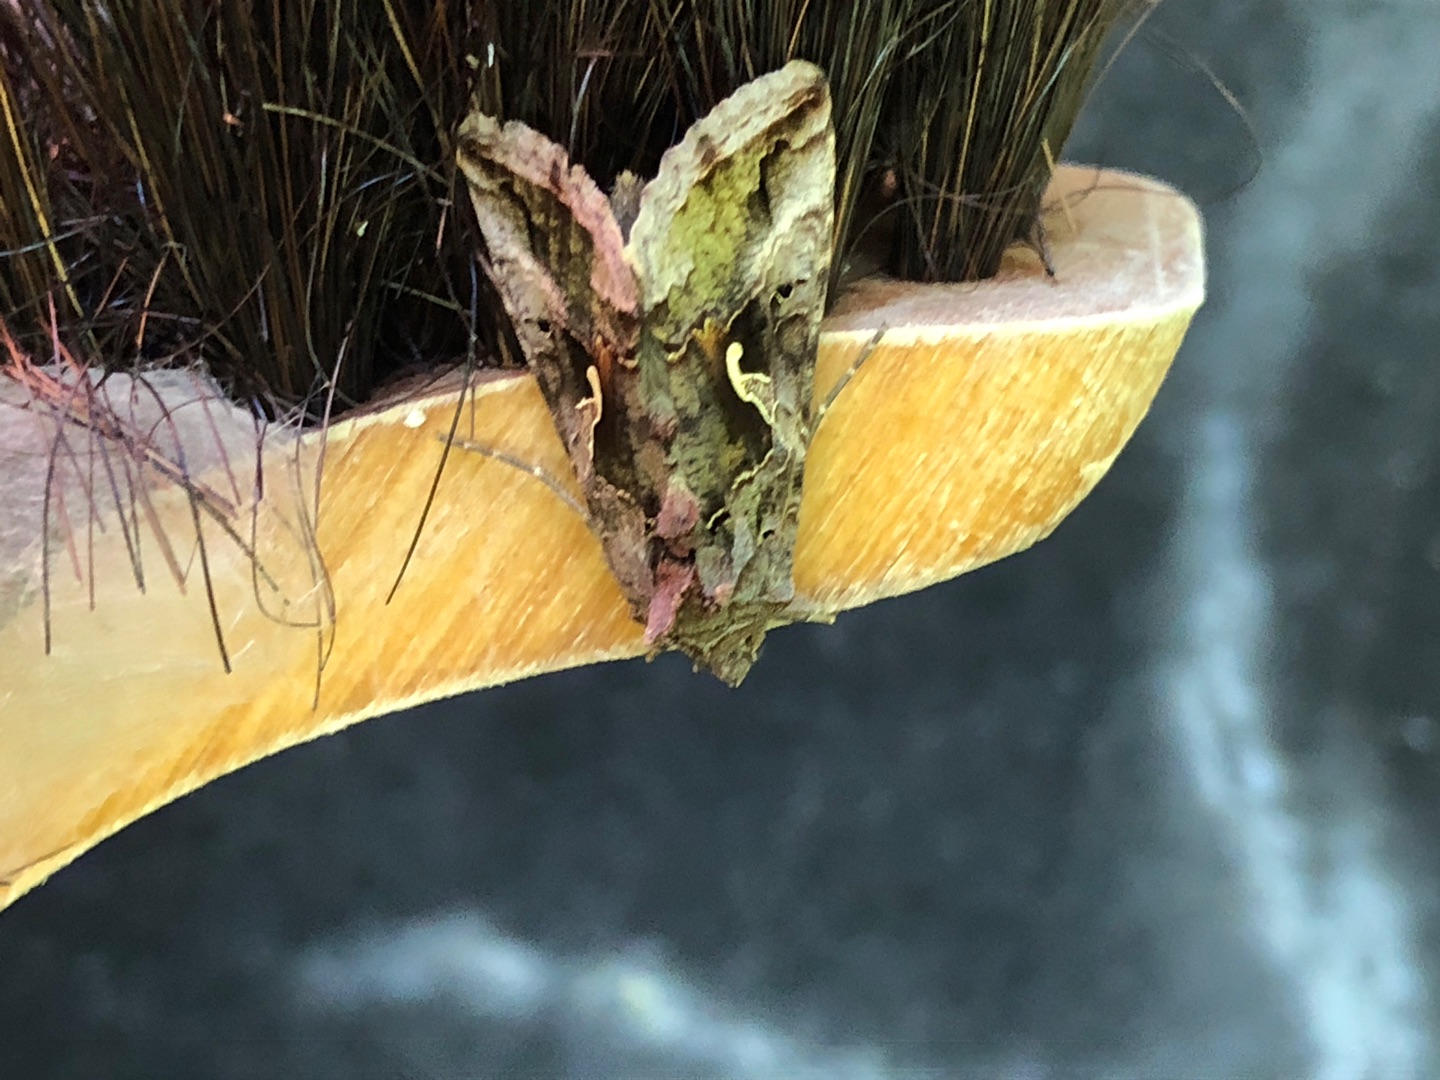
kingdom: Animalia
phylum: Arthropoda
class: Insecta
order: Lepidoptera
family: Noctuidae
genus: Autographa
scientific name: Autographa gamma
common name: Gammaugle
